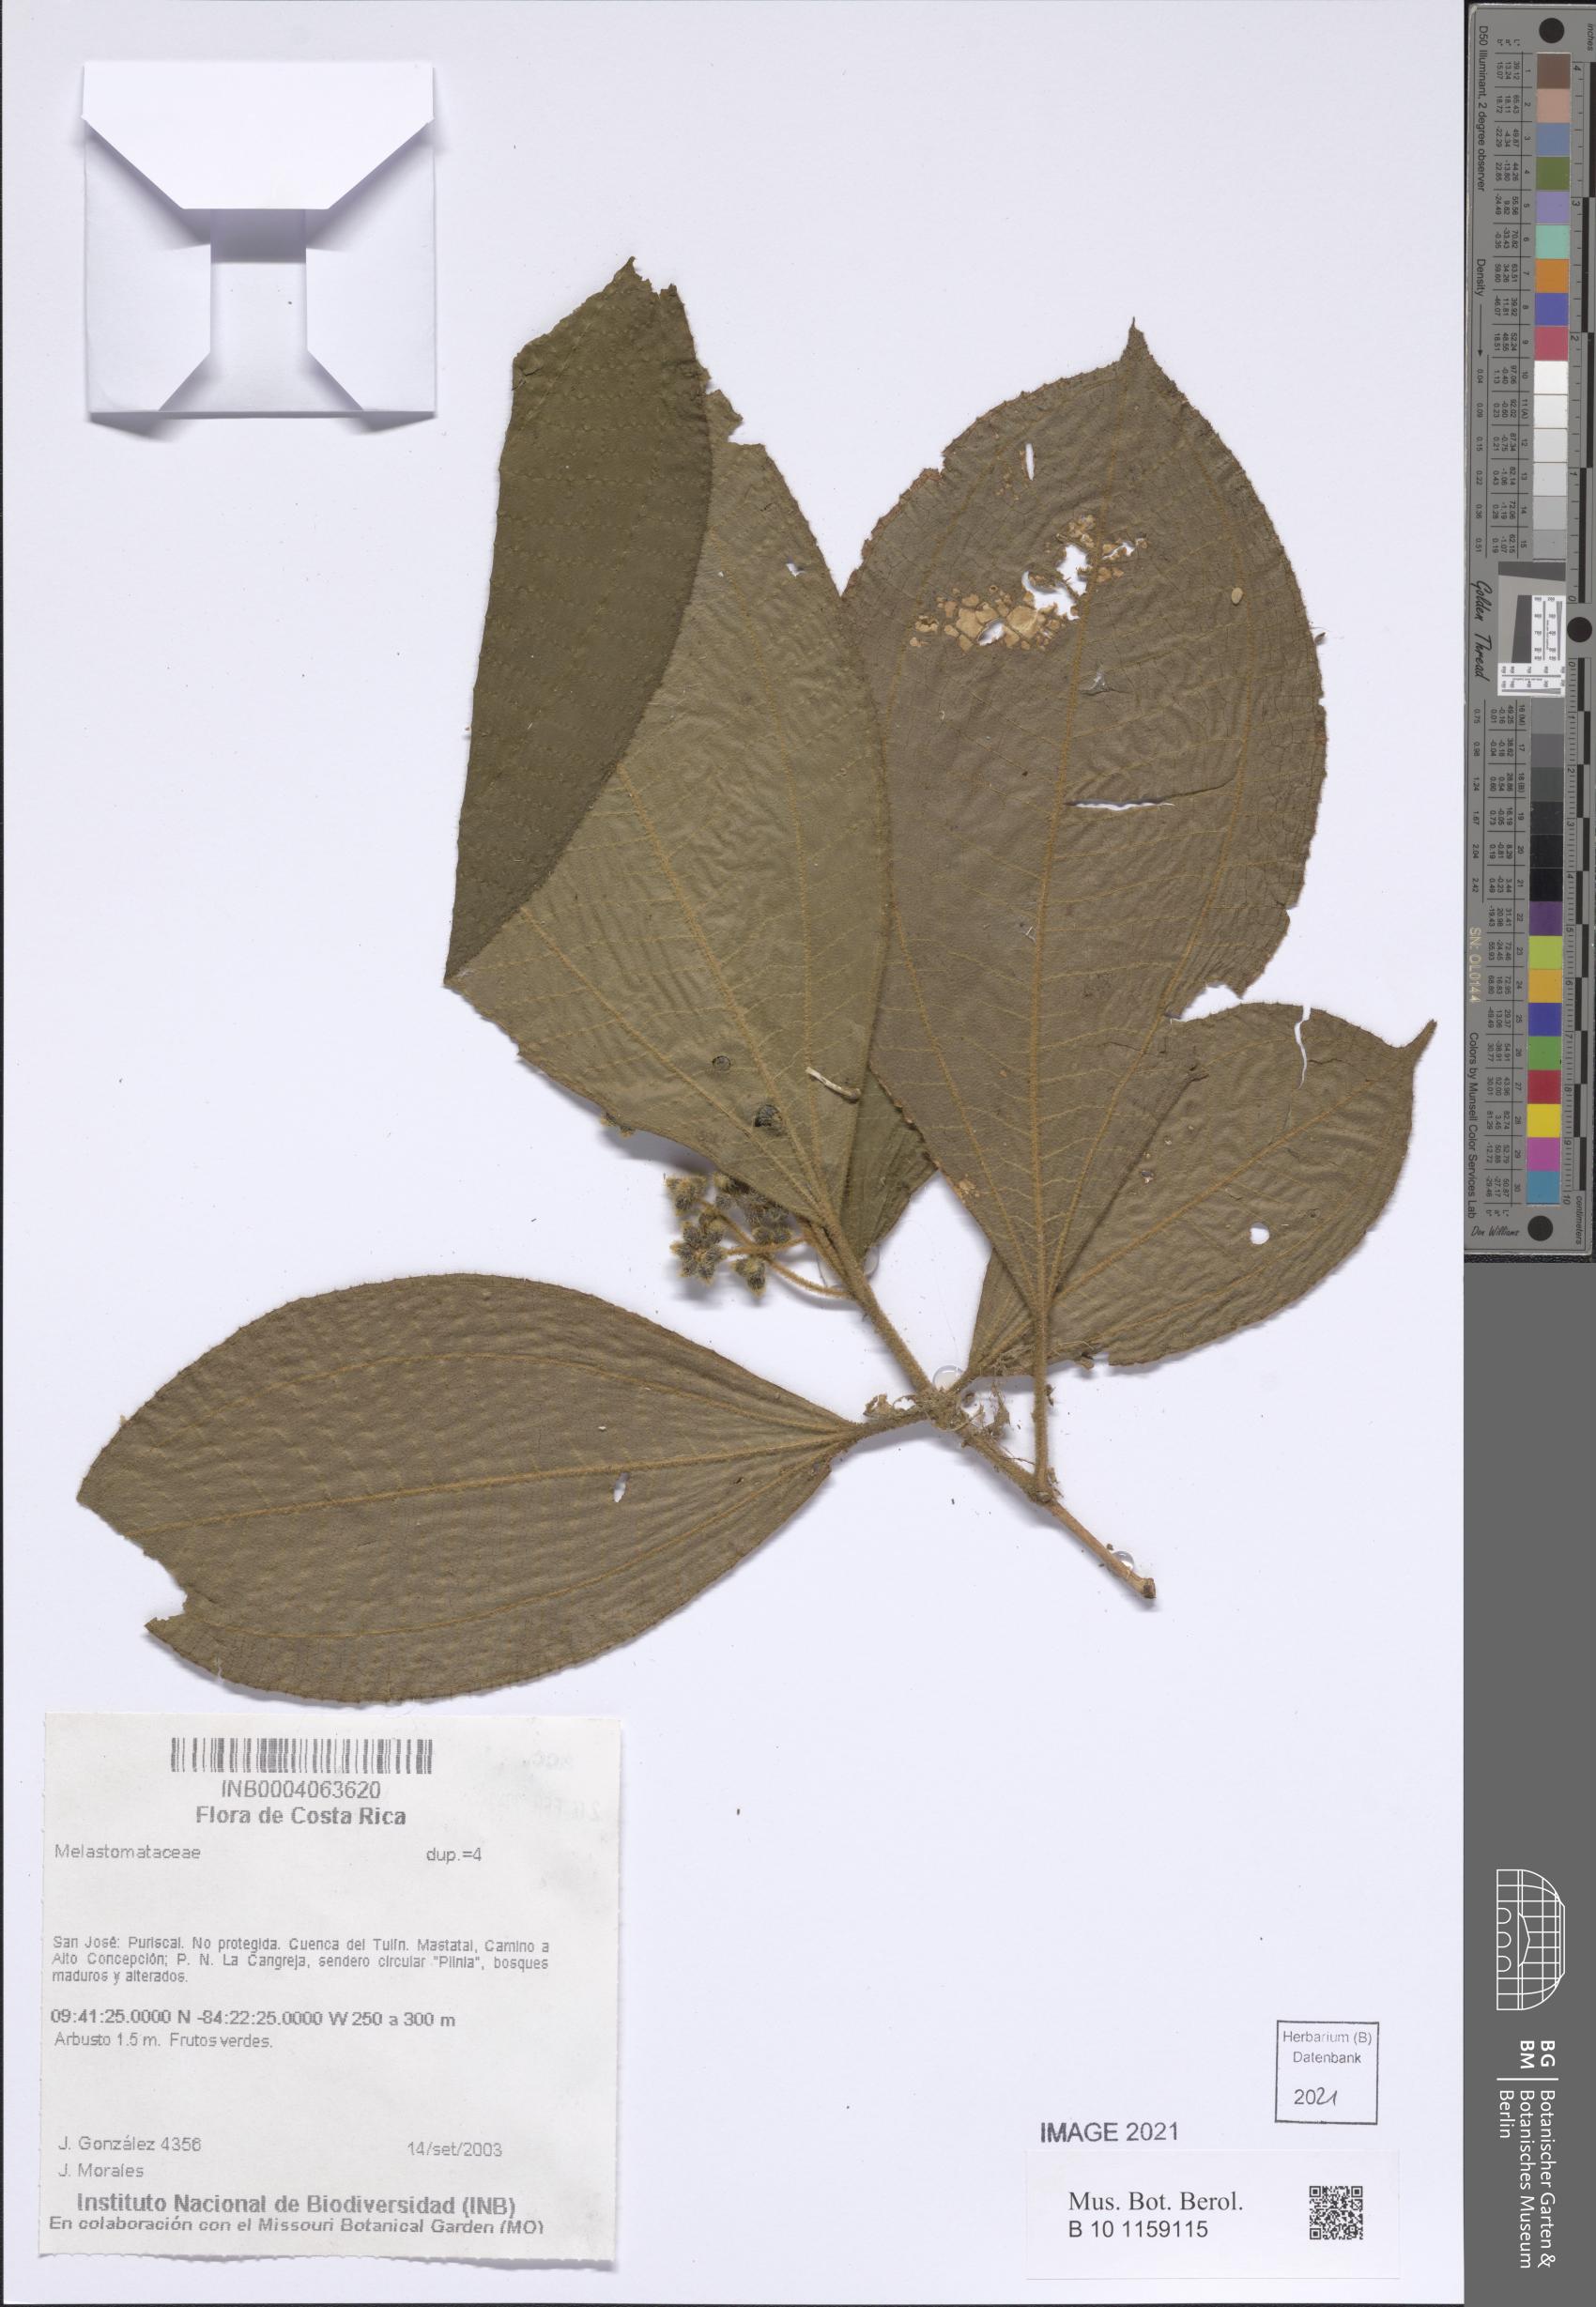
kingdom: Plantae
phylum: Tracheophyta
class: Magnoliopsida
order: Myrtales
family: Melastomataceae
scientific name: Melastomataceae
